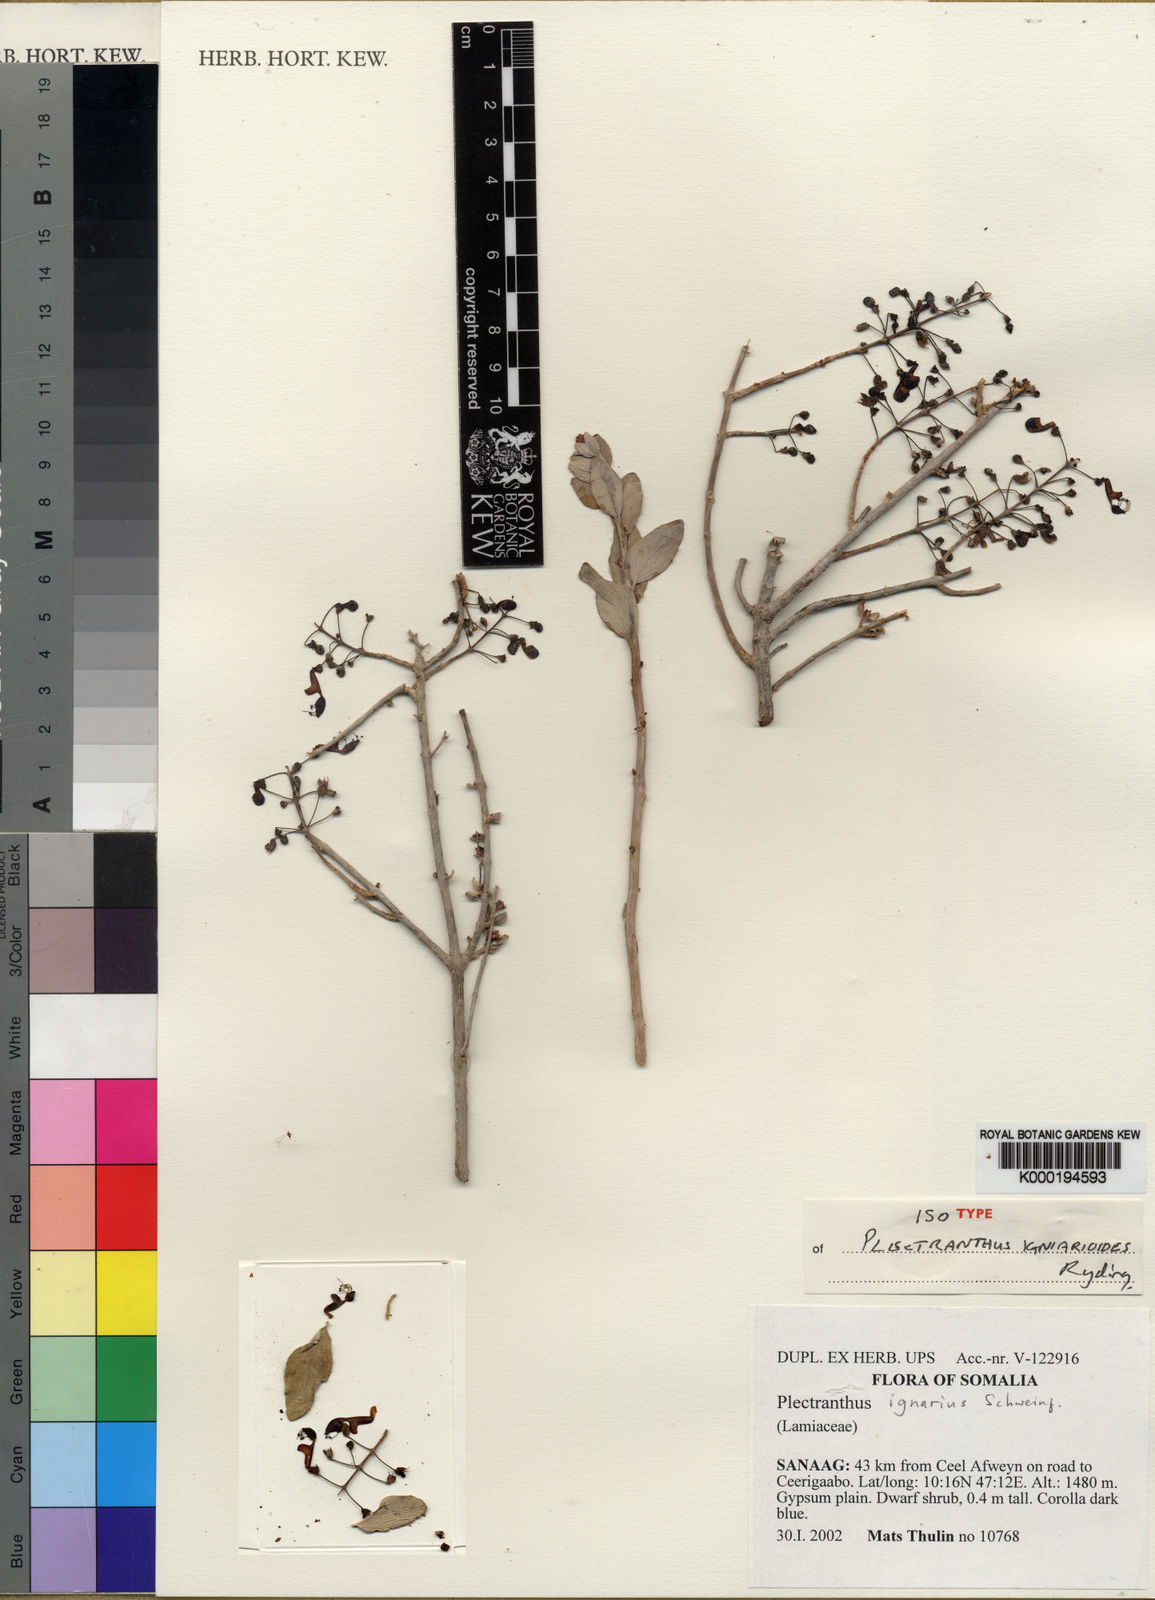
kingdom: Plantae
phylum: Tracheophyta
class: Magnoliopsida
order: Lamiales
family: Lamiaceae
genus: Coleus
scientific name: Coleus igniarioides
